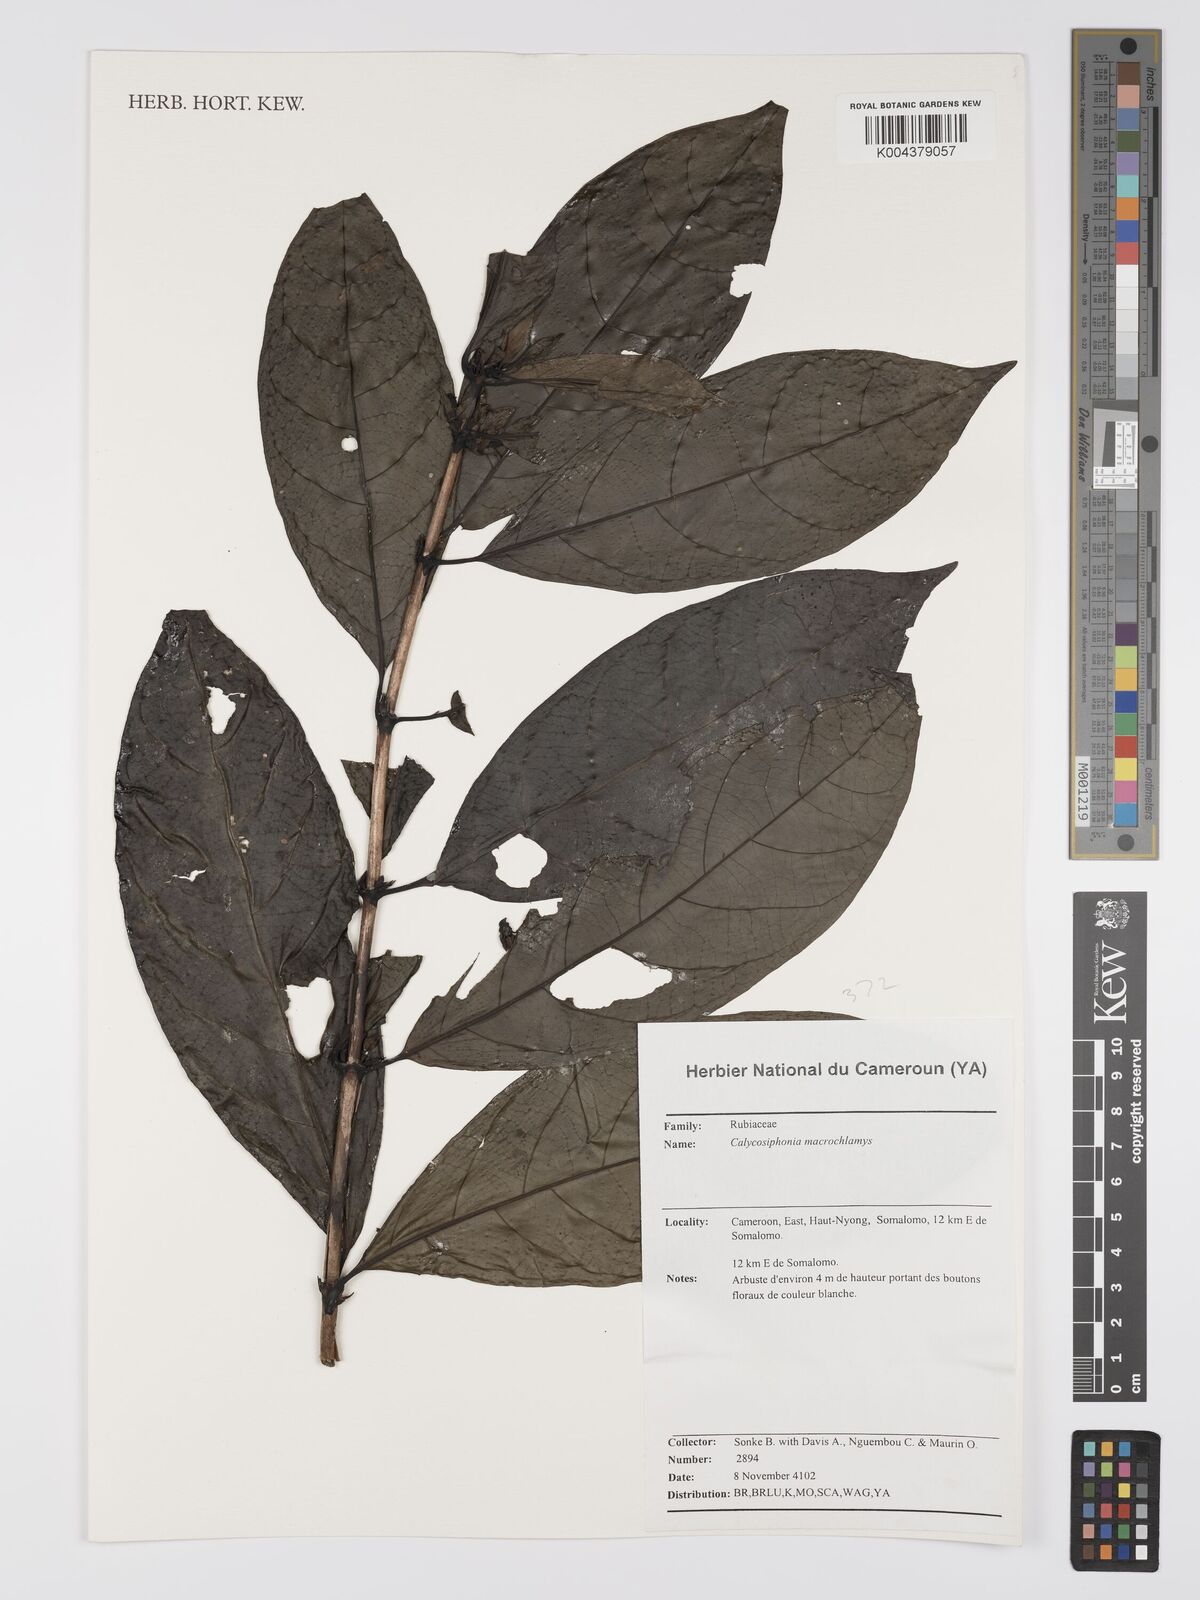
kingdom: Plantae
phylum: Tracheophyta
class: Magnoliopsida
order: Gentianales
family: Rubiaceae
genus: Calycosiphonia
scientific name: Calycosiphonia macrochlamys
